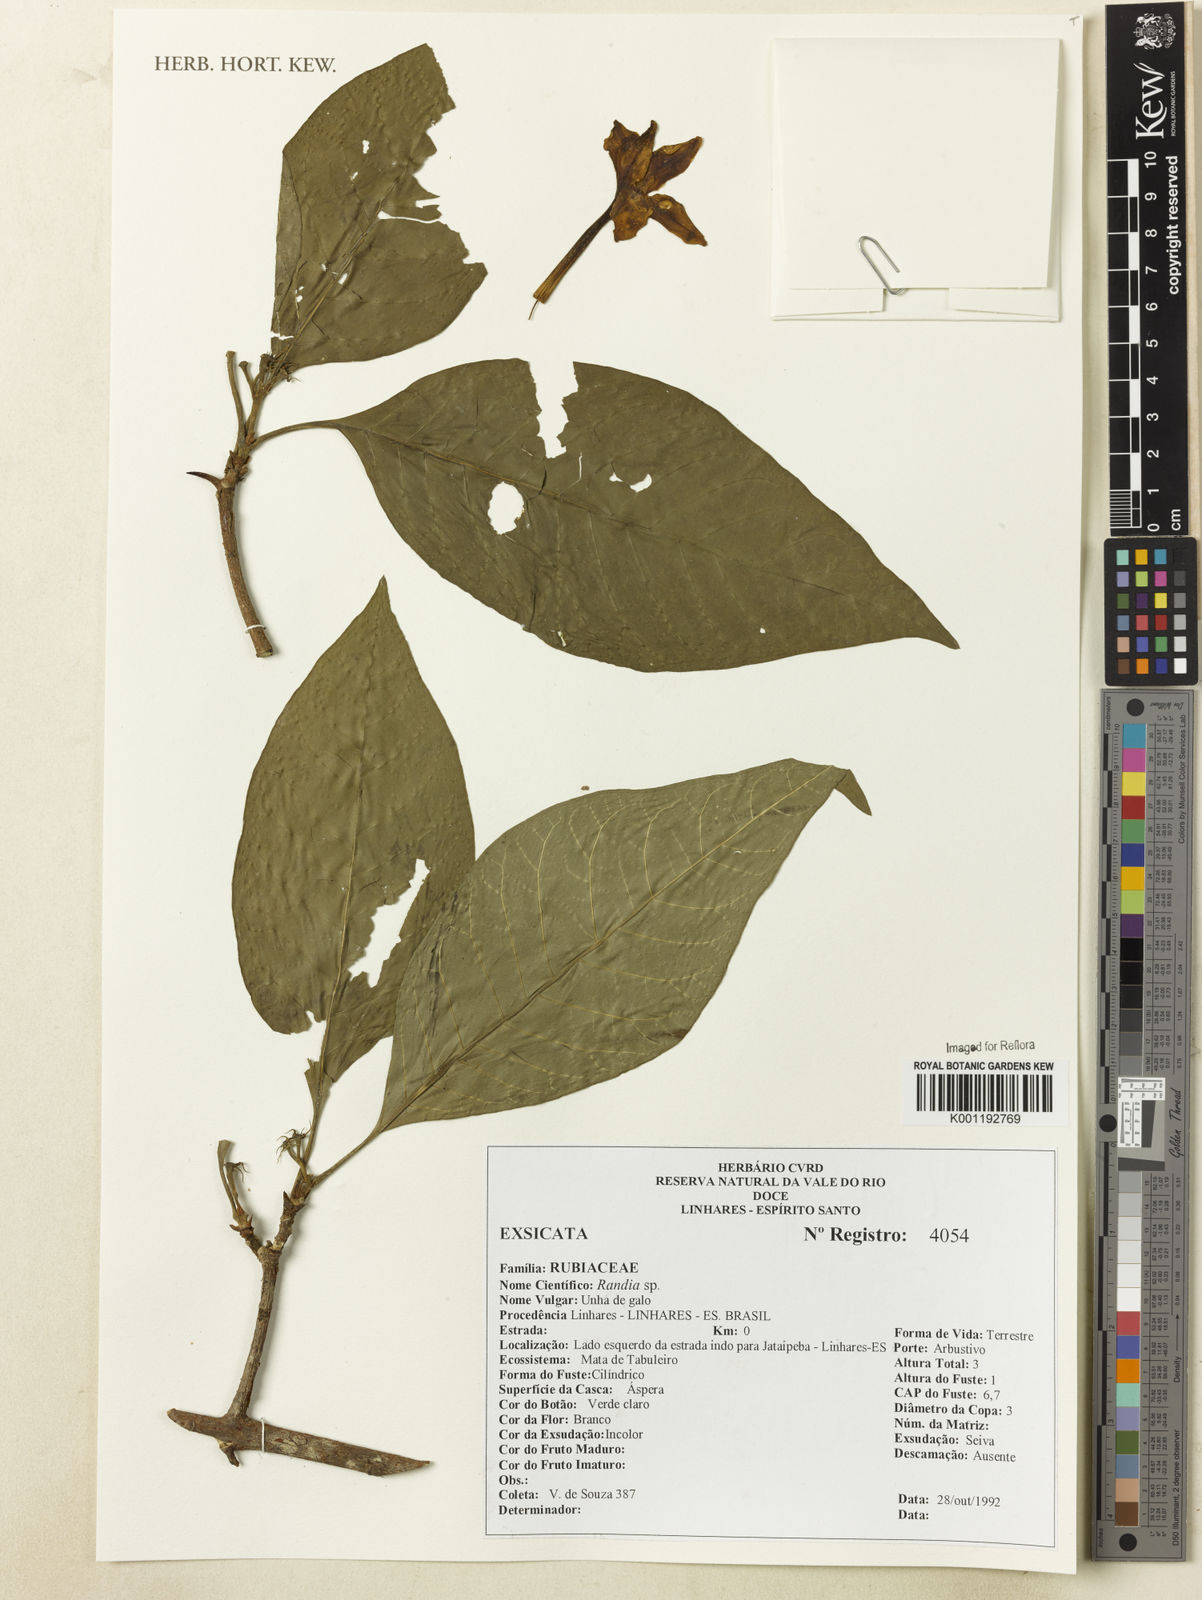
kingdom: Plantae
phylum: Tracheophyta
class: Magnoliopsida
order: Gentianales
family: Rubiaceae
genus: Randia
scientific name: Randia
